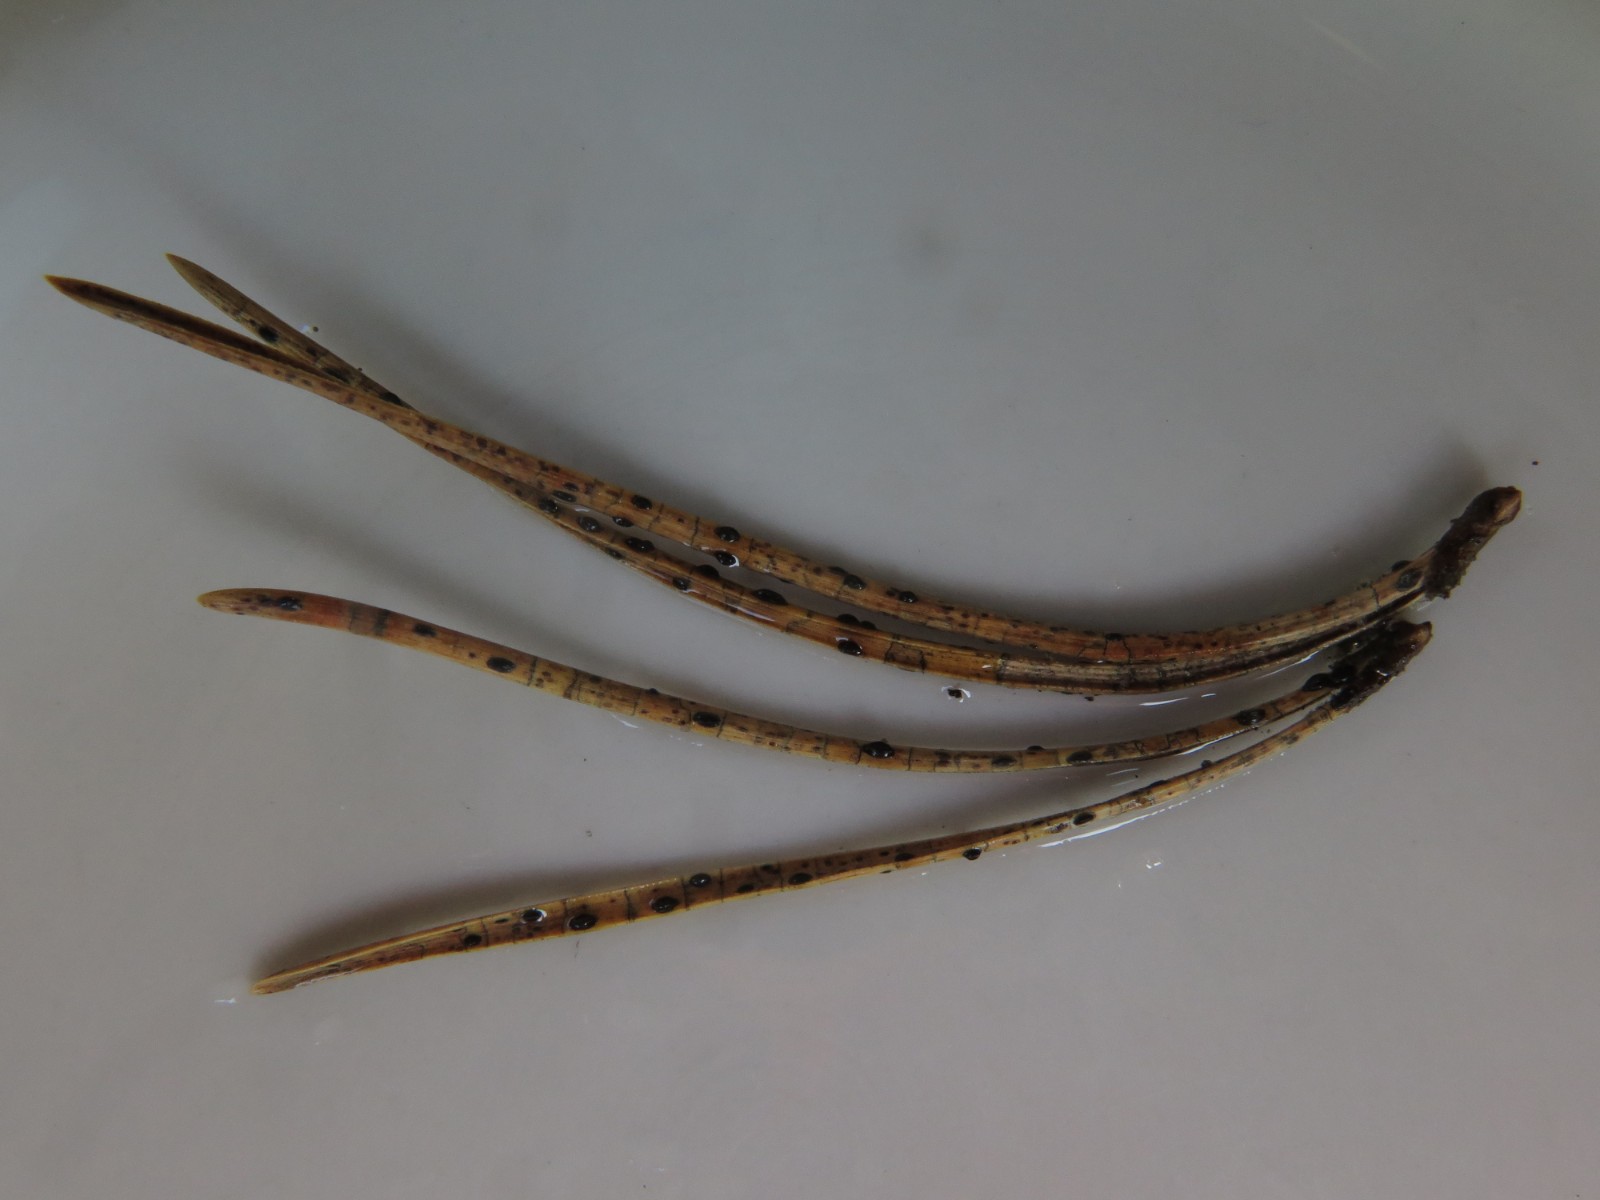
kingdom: Fungi
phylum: Ascomycota
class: Leotiomycetes
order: Rhytismatales
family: Rhytismataceae
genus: Lophodermium
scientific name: Lophodermium pinastri
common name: fyrre-fureplet
